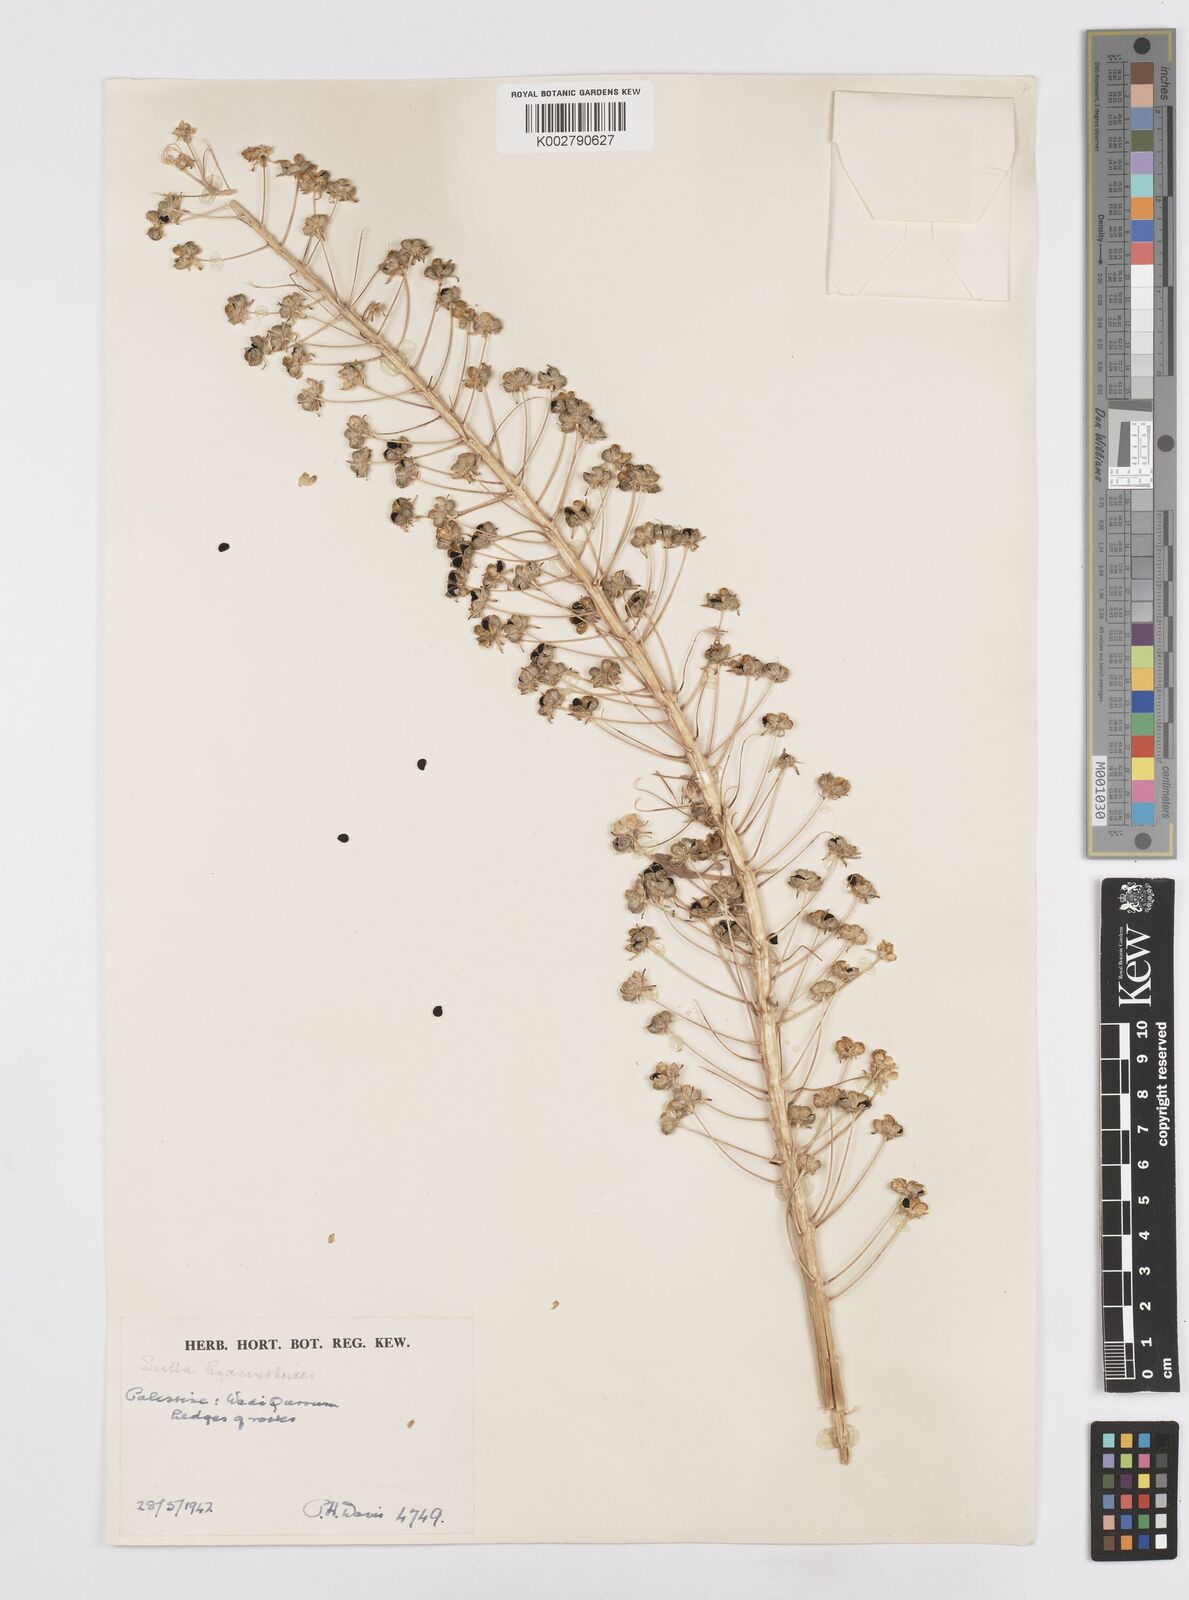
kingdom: Plantae
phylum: Tracheophyta
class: Liliopsida
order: Asparagales
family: Asparagaceae
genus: Scilla
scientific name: Scilla hyacinthoides
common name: Scilla
